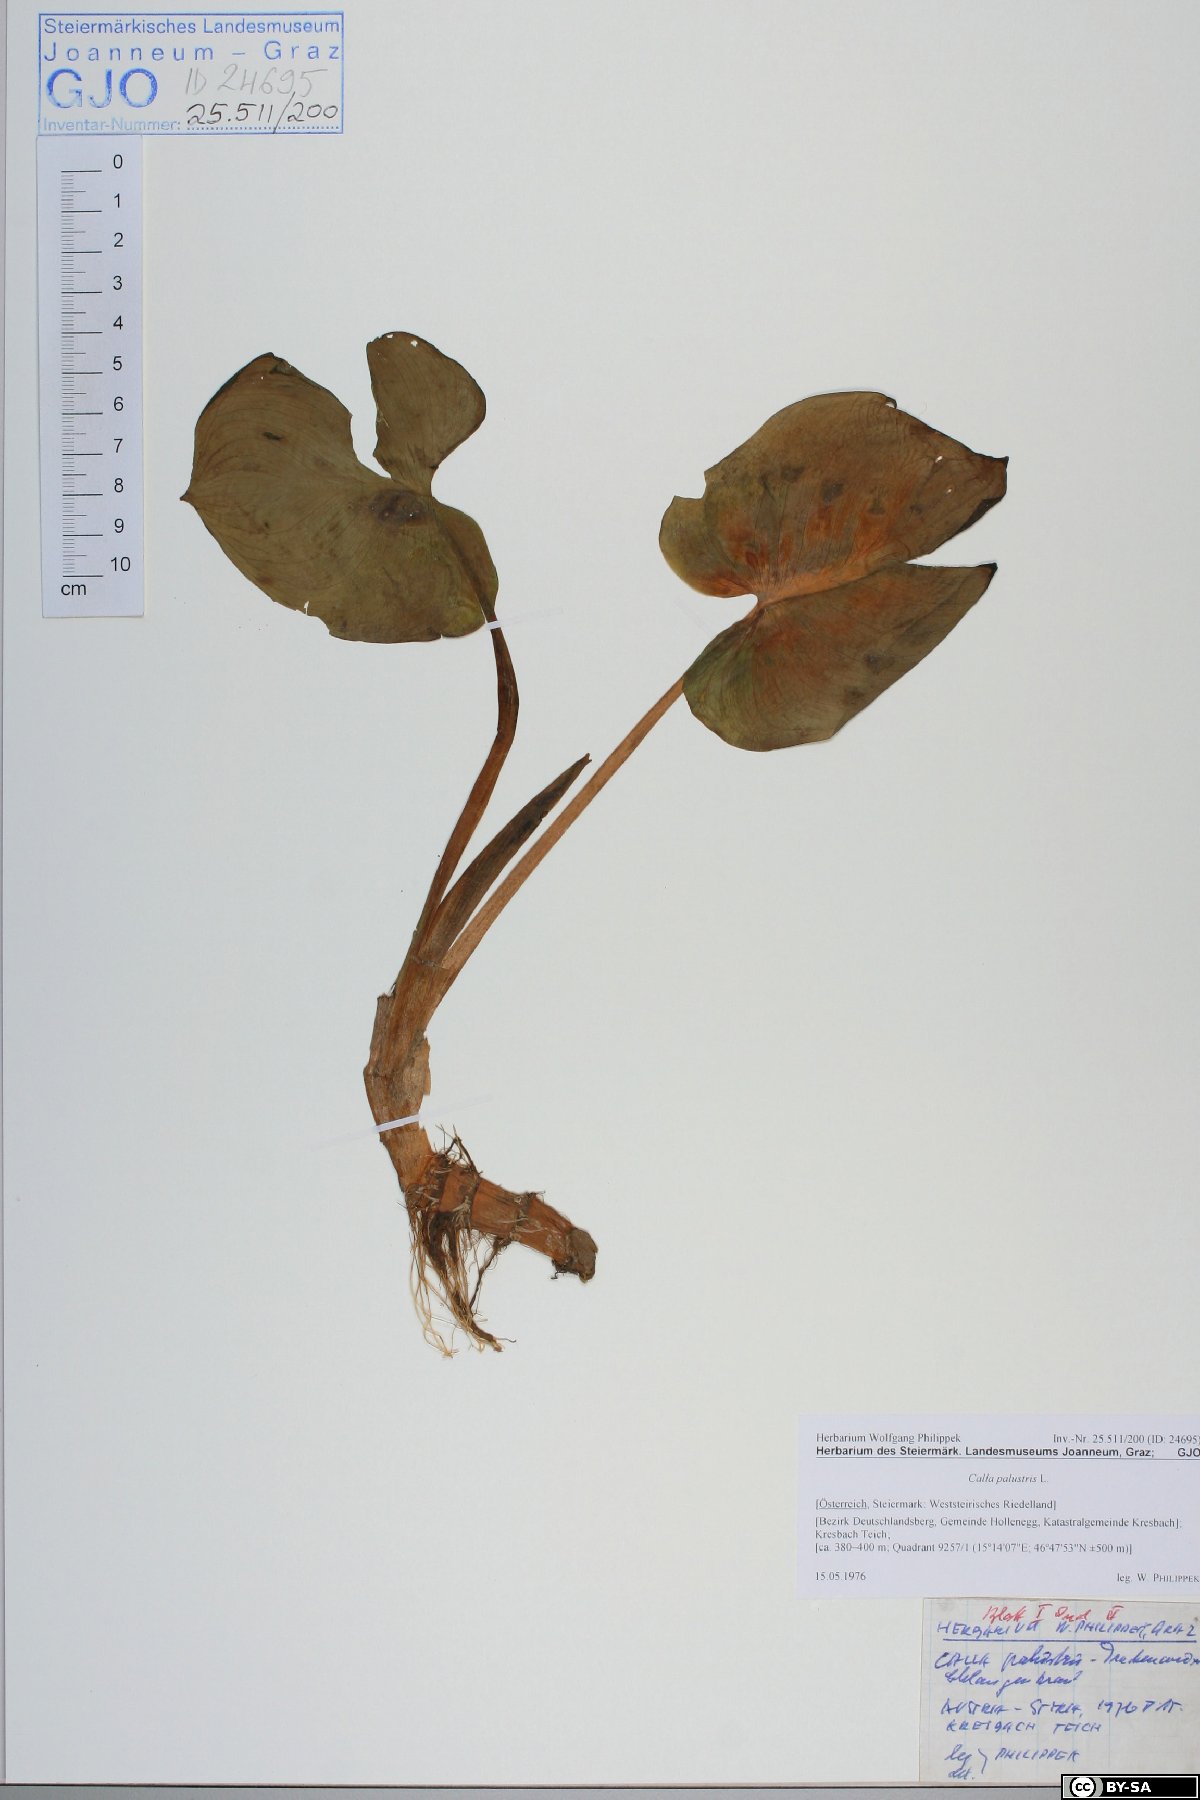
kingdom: Plantae
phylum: Tracheophyta
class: Liliopsida
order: Alismatales
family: Araceae
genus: Calla
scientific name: Calla palustris
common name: Bog arum
